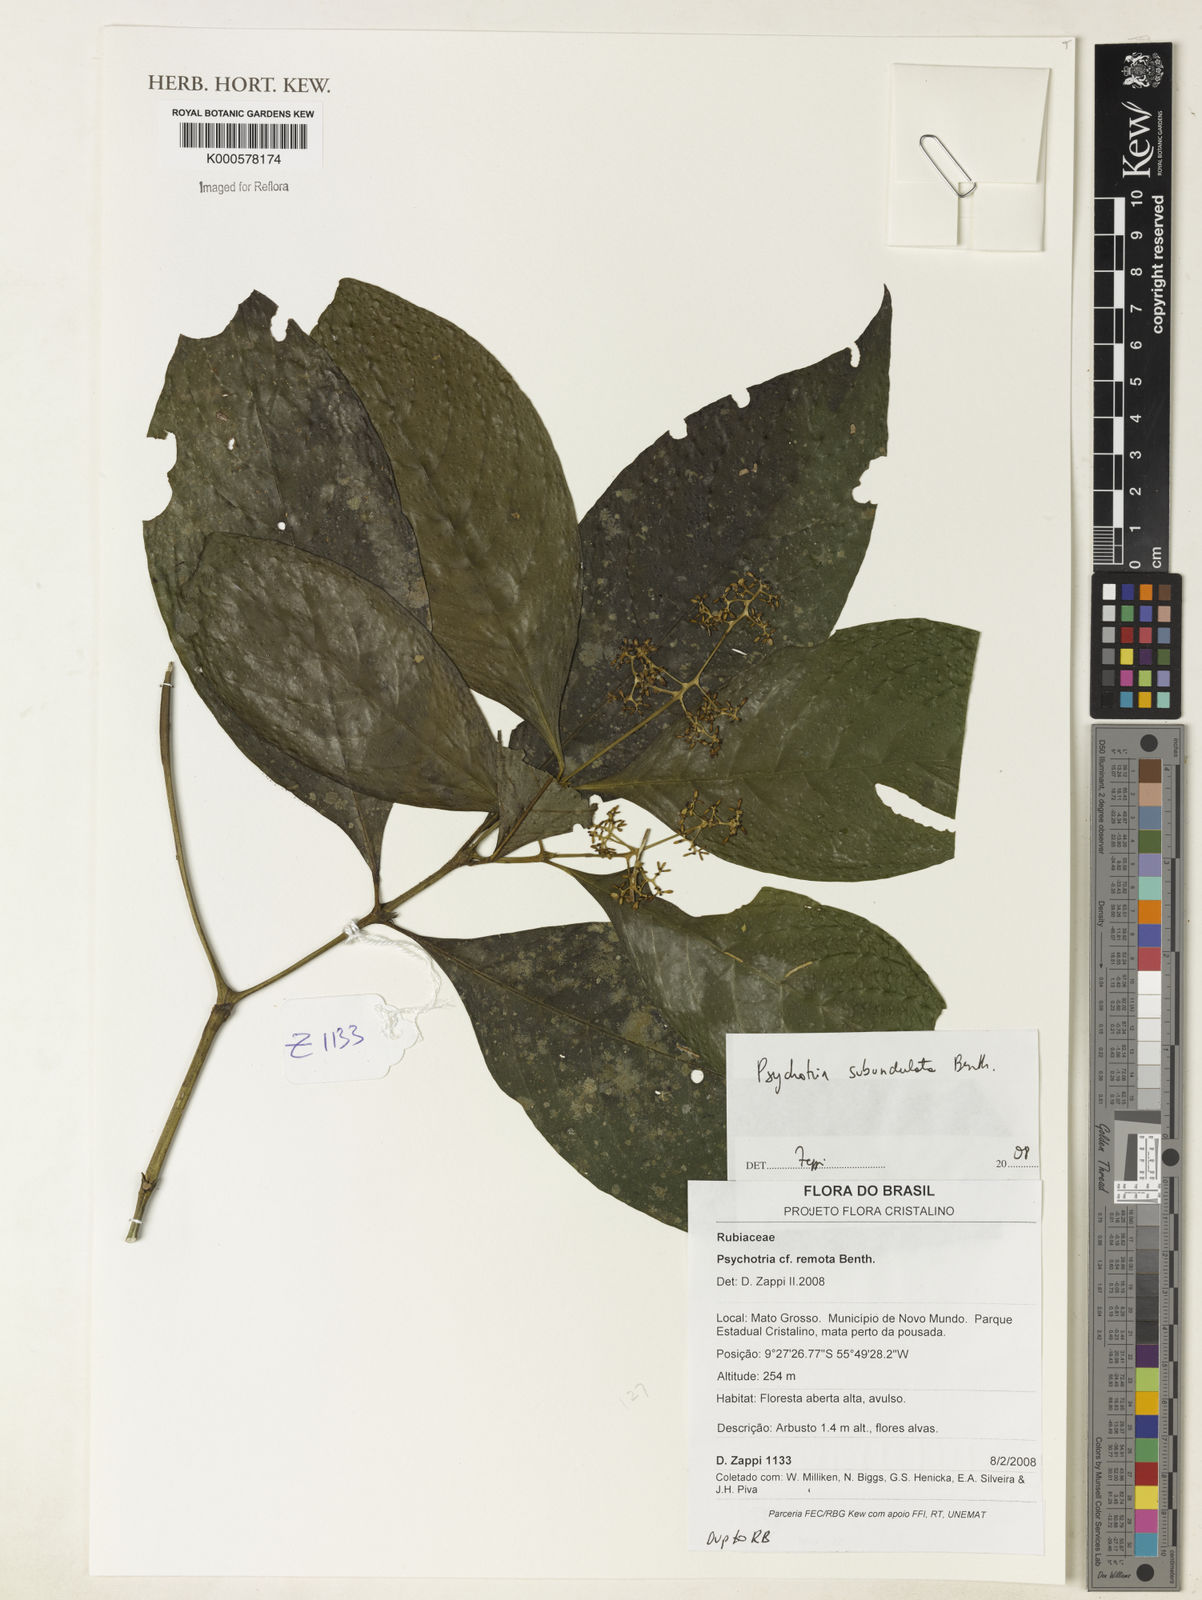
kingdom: Plantae
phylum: Tracheophyta
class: Magnoliopsida
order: Gentianales
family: Rubiaceae
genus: Palicourea
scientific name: Palicourea subundulata
